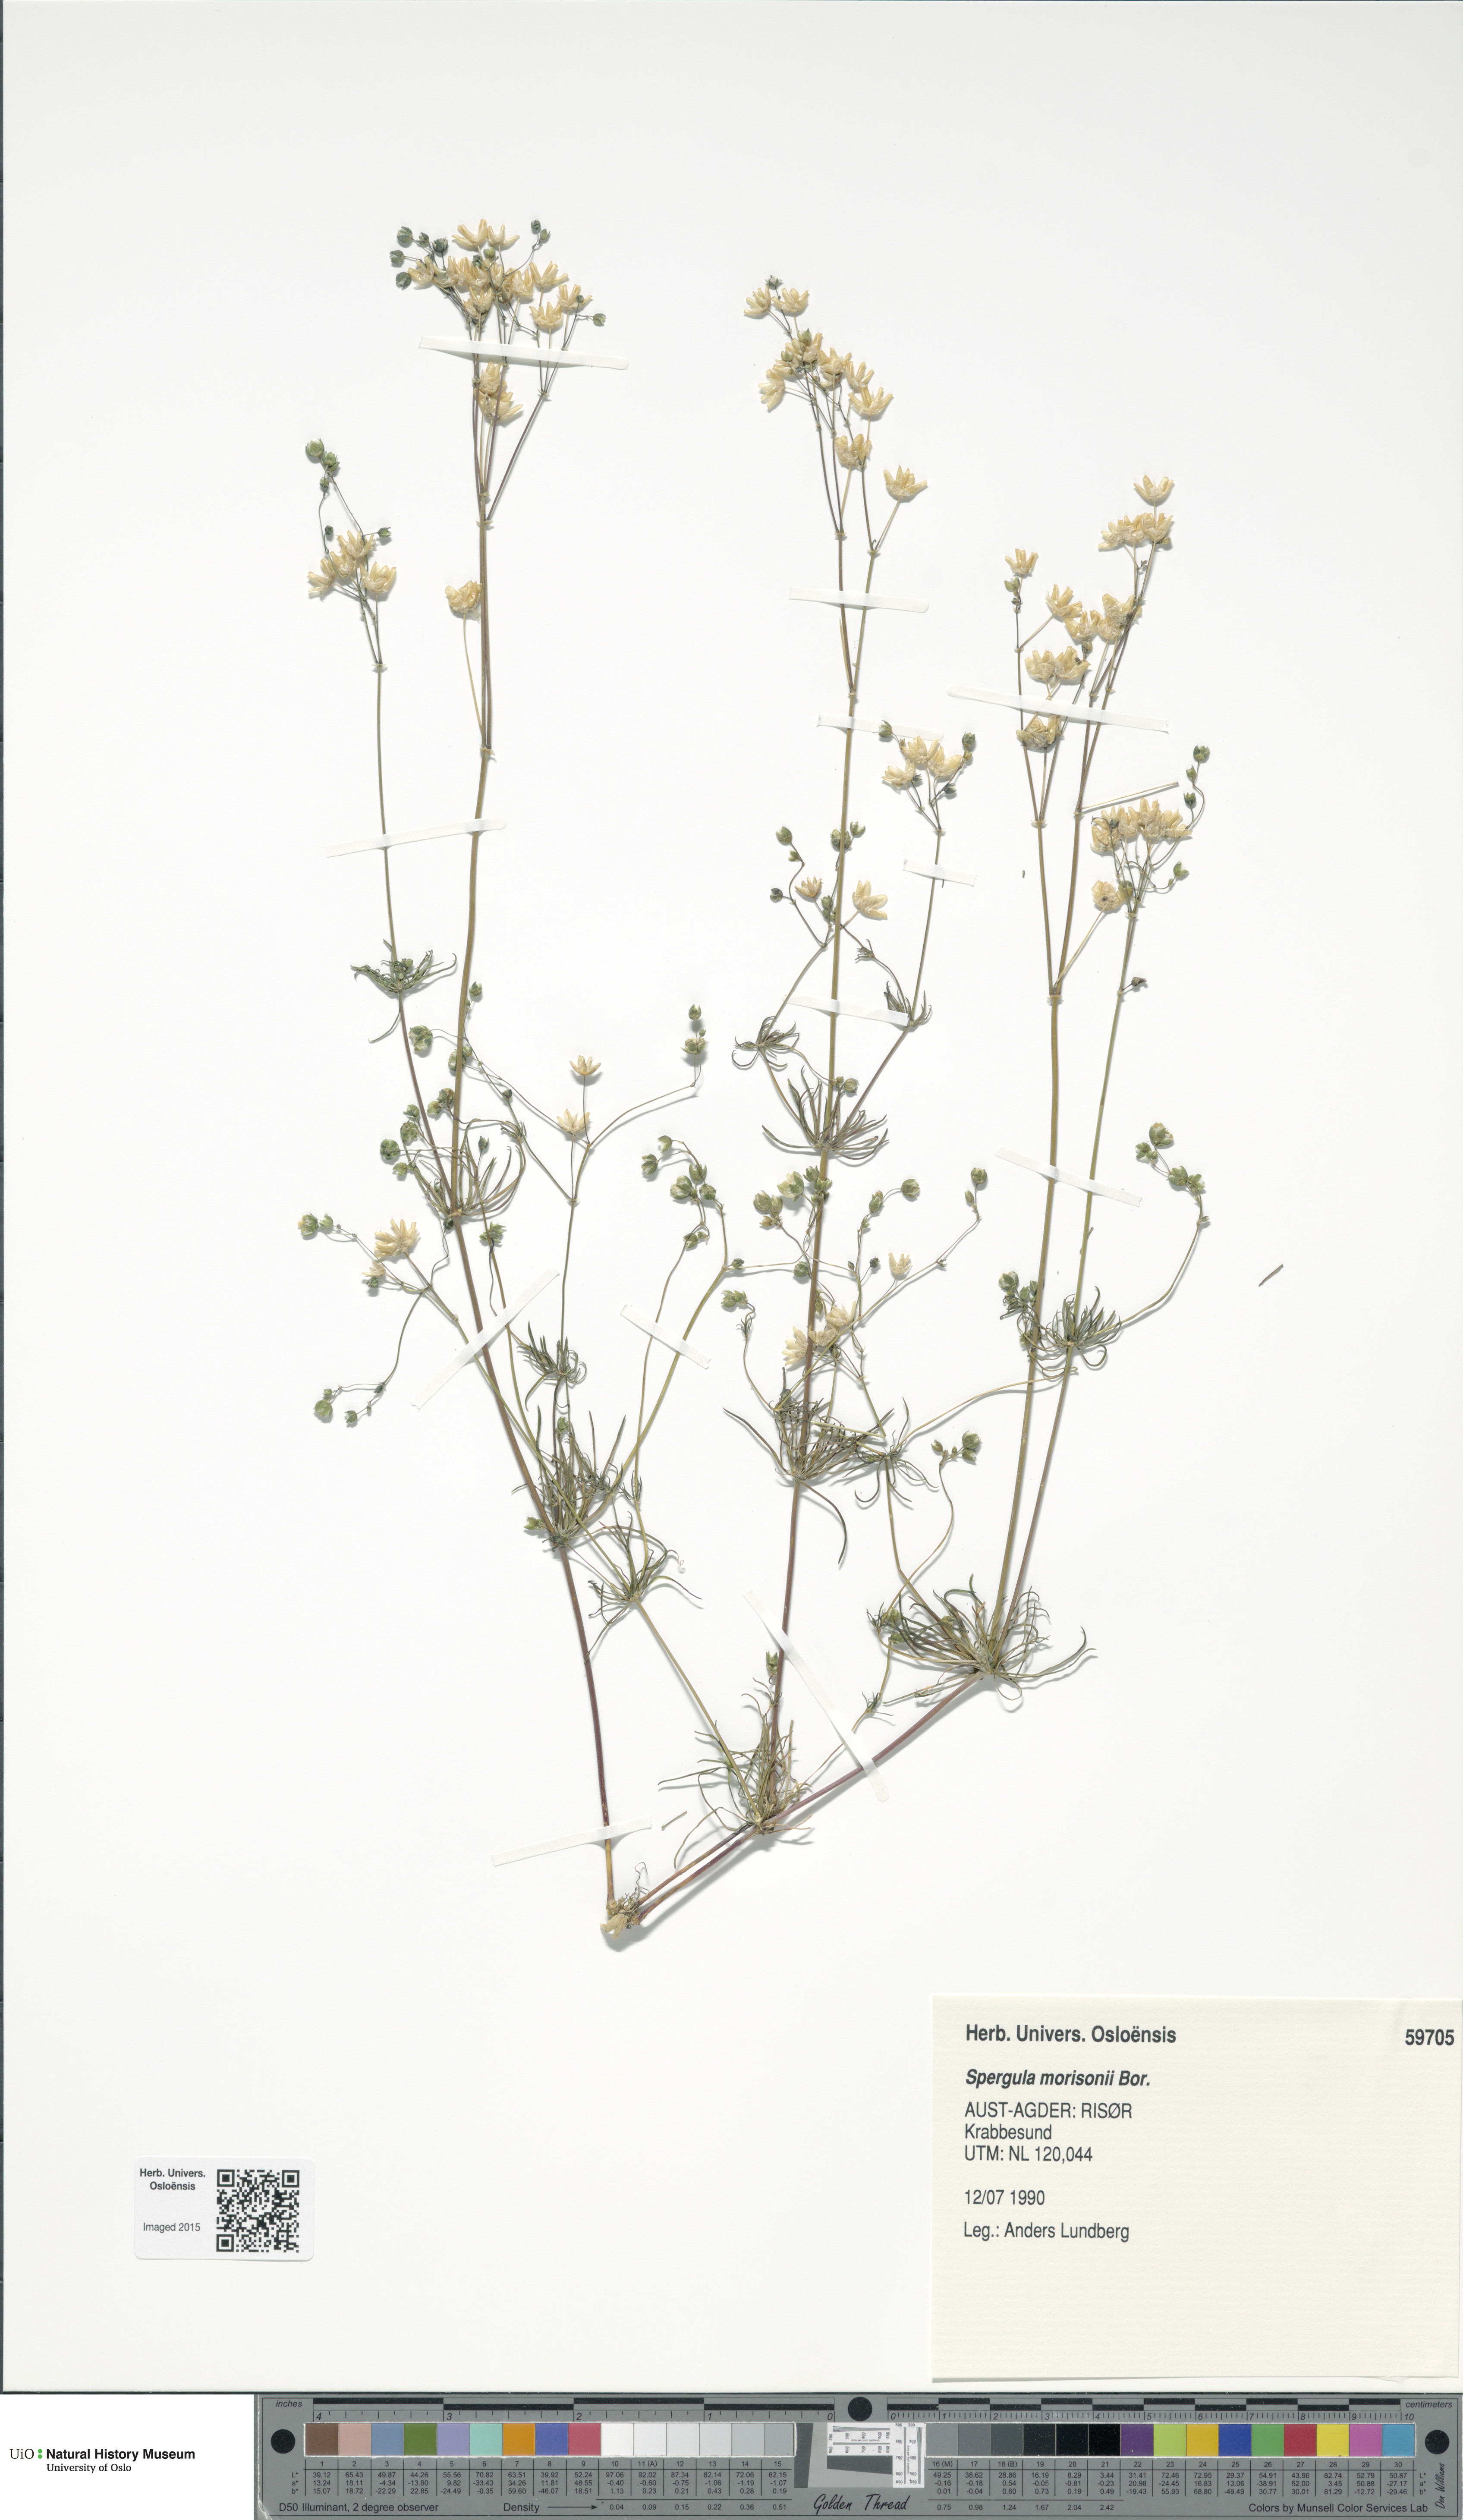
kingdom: Plantae
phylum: Tracheophyta
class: Magnoliopsida
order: Caryophyllales
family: Caryophyllaceae
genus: Spergula
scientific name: Spergula morisonii
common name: Pearlwort spurrey
